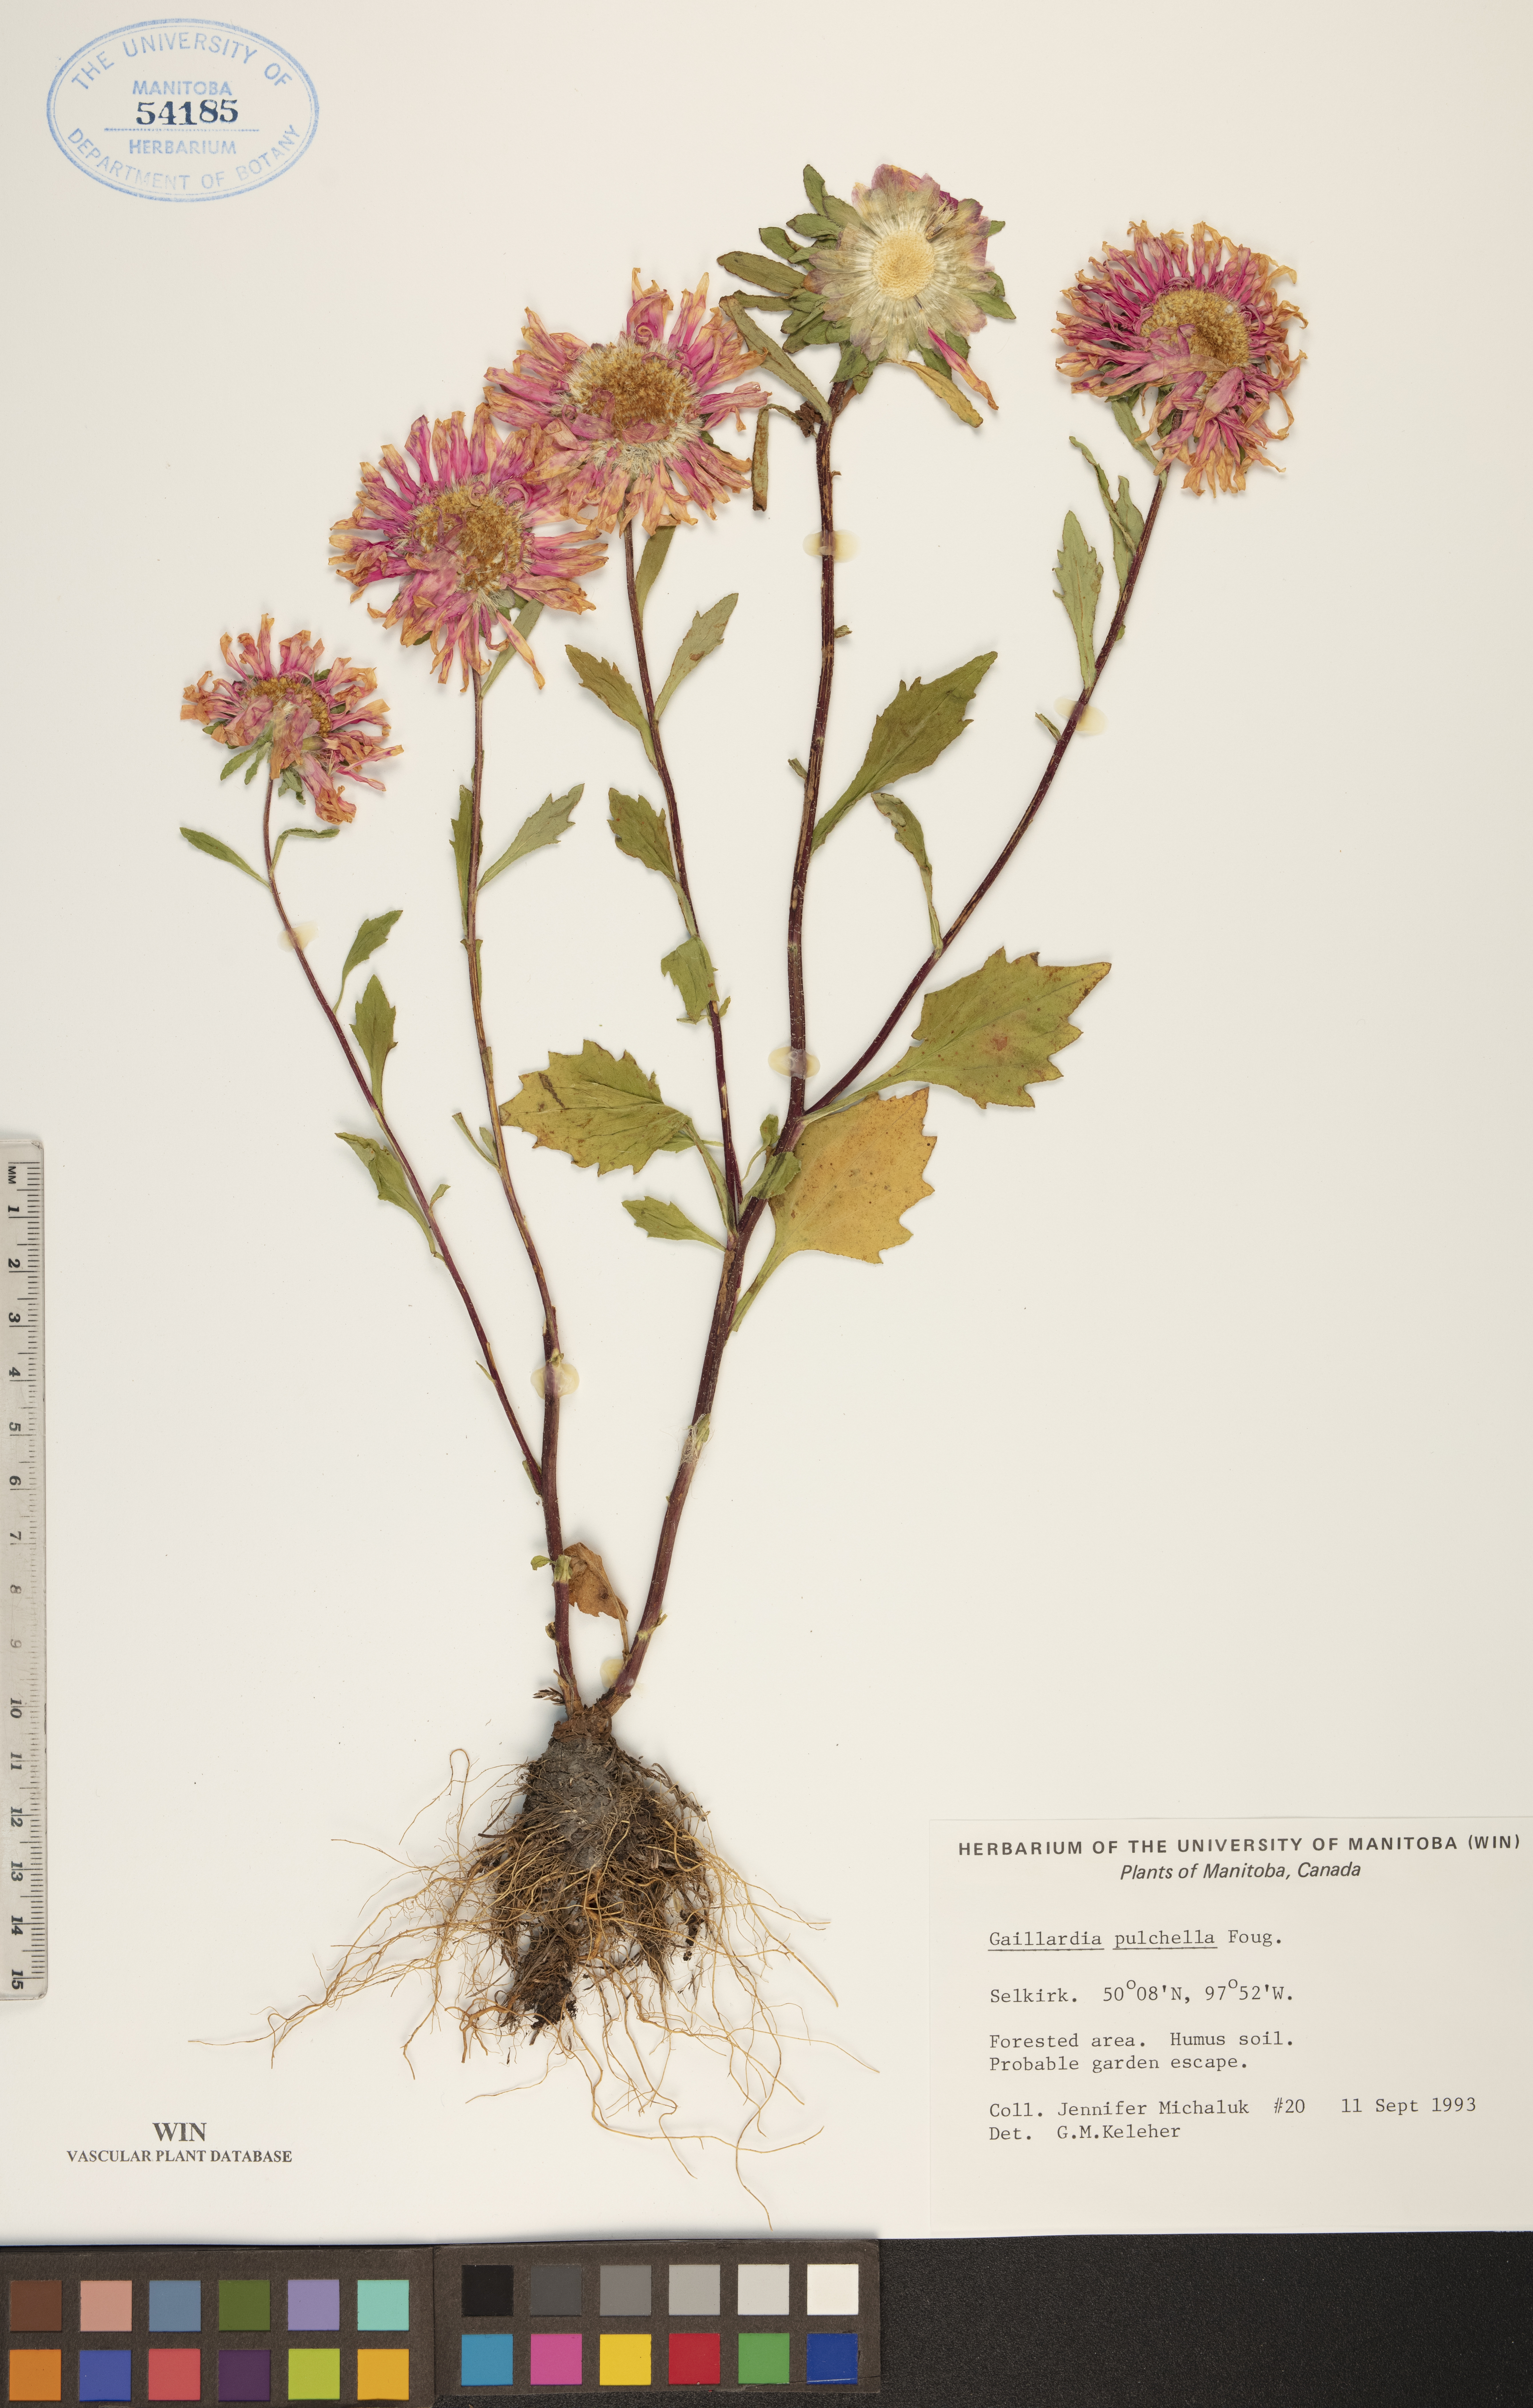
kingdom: Plantae
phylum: Tracheophyta
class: Magnoliopsida
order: Asterales
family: Asteraceae
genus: Gaillardia
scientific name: Gaillardia pulchella
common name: Firewheel
